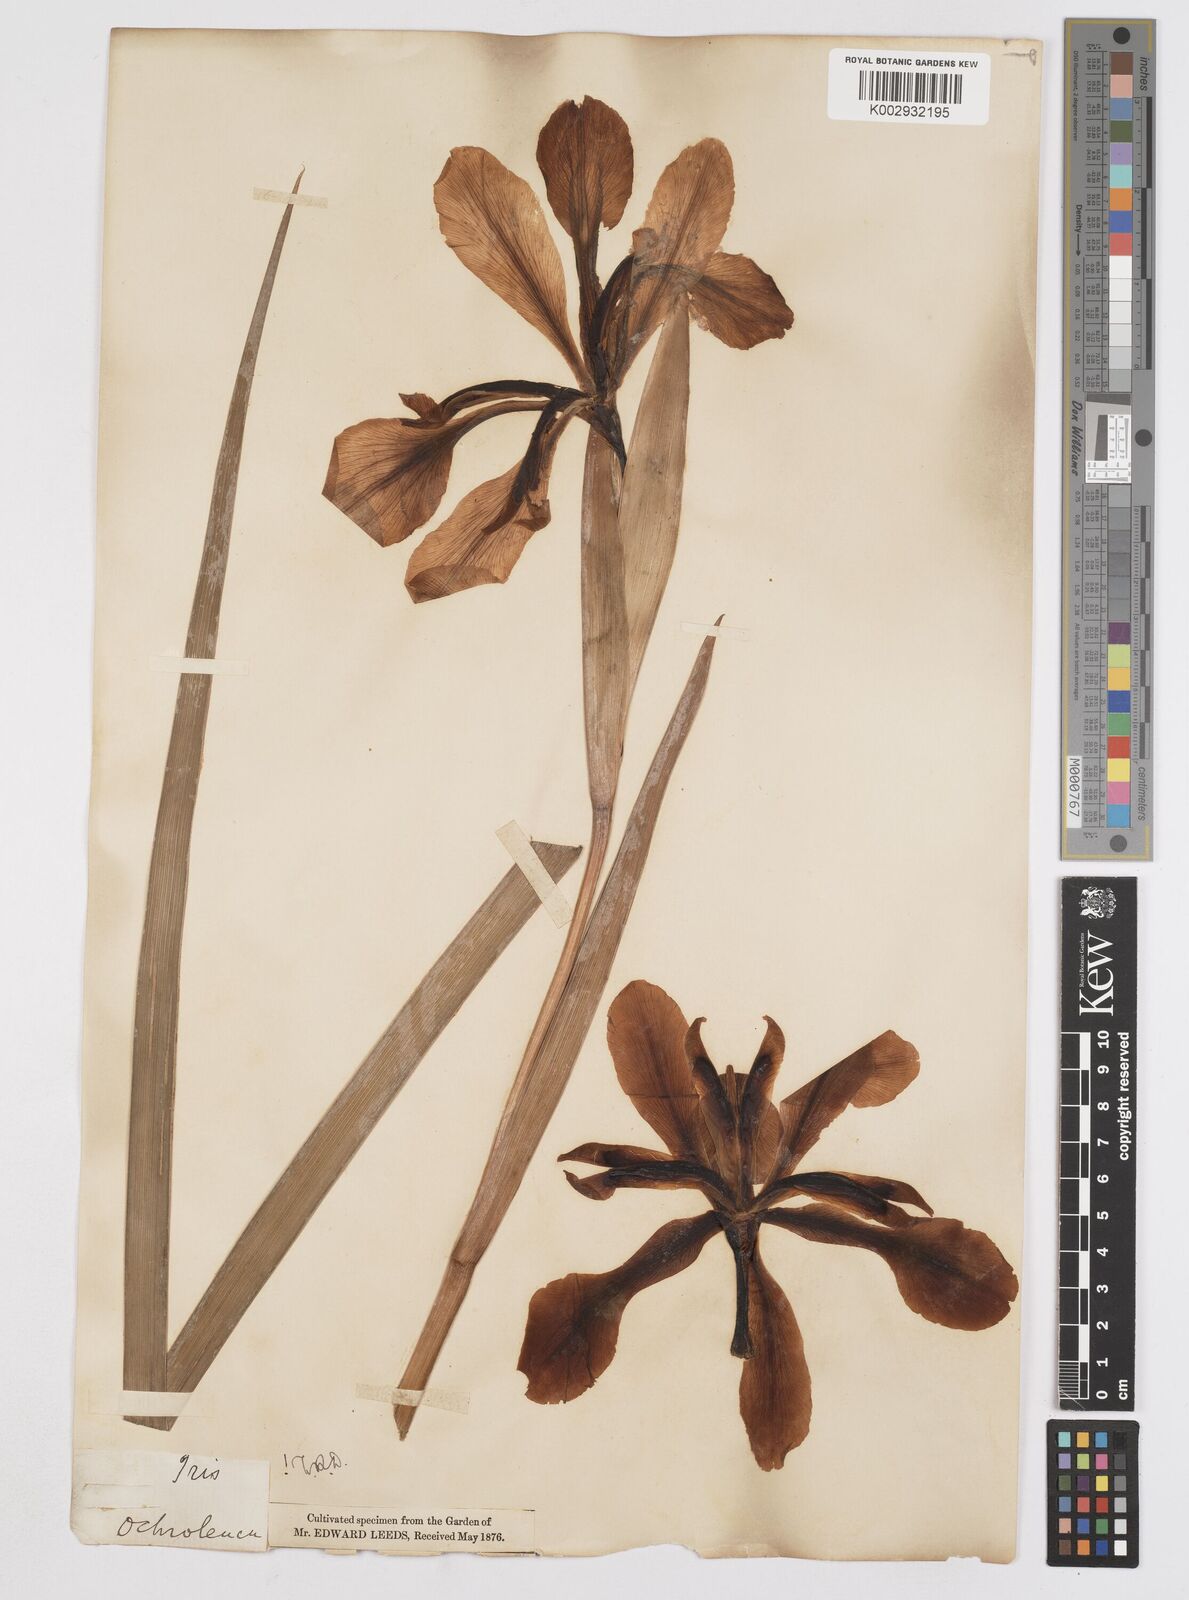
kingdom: Plantae
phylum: Tracheophyta
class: Liliopsida
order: Asparagales
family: Iridaceae
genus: Iris
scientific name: Iris orientalis
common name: Turkish iris
